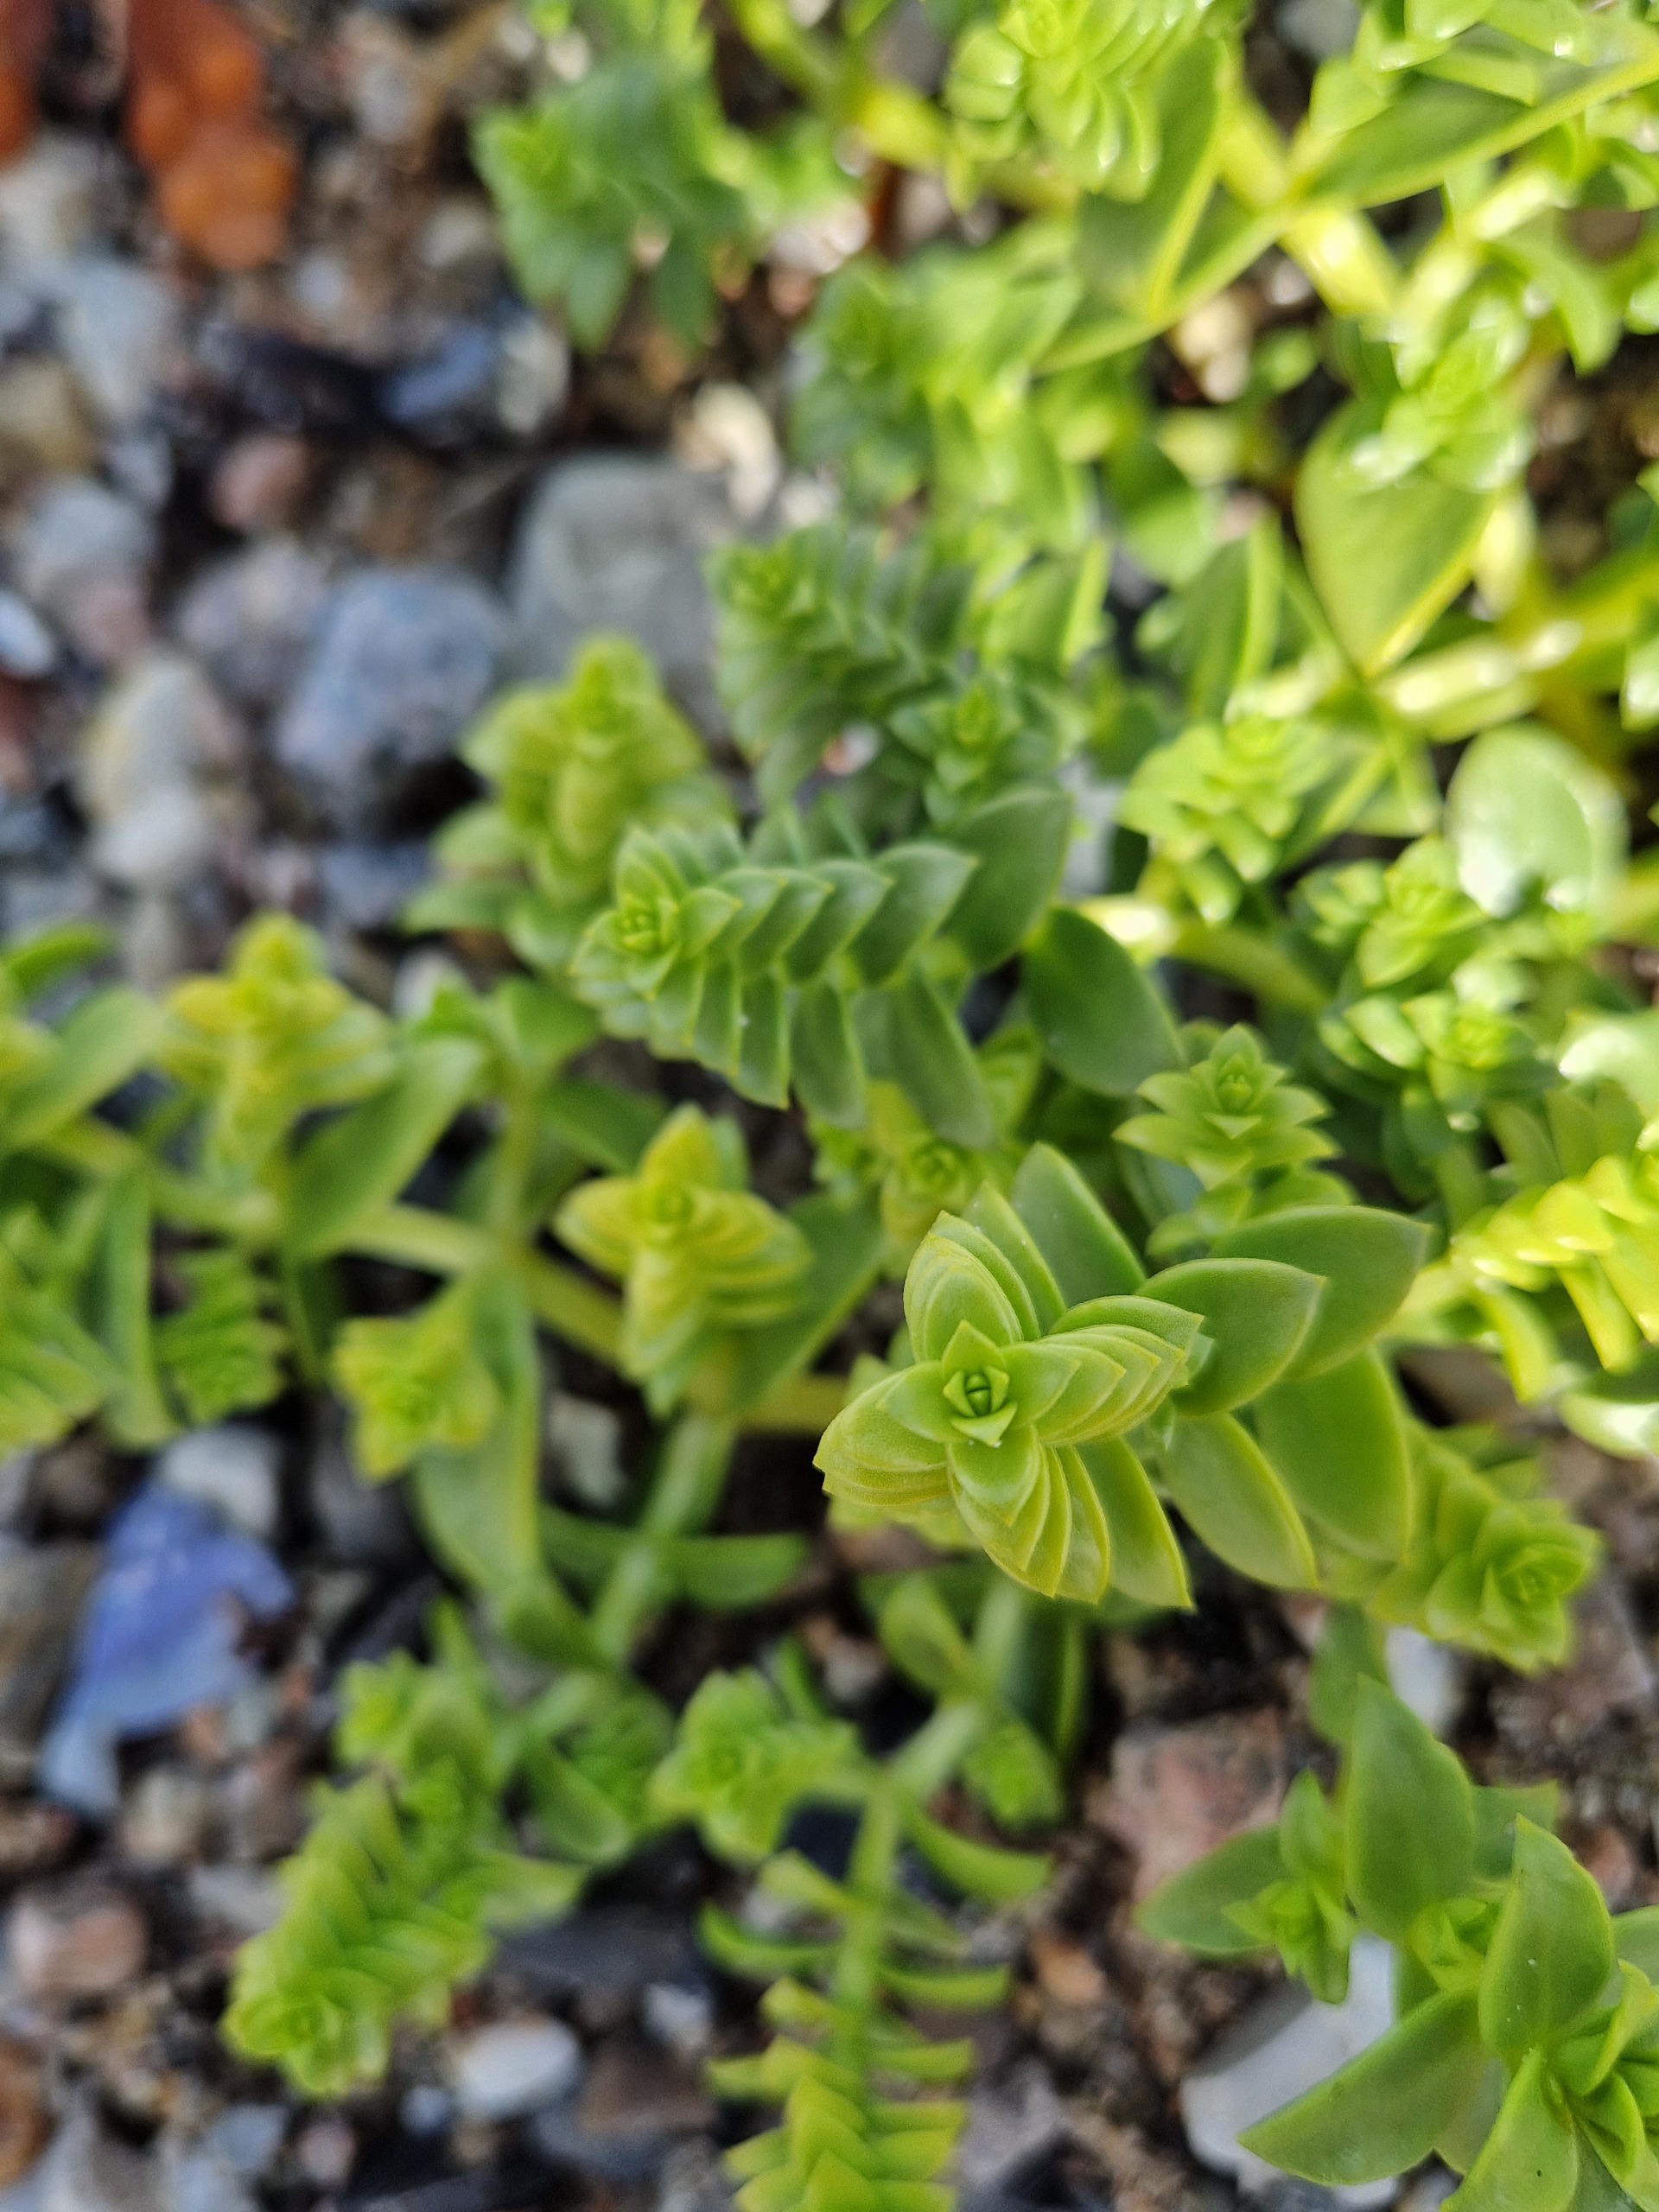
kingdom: Plantae
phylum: Tracheophyta
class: Magnoliopsida
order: Caryophyllales
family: Caryophyllaceae
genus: Honckenya
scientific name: Honckenya peploides
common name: Strandarve
